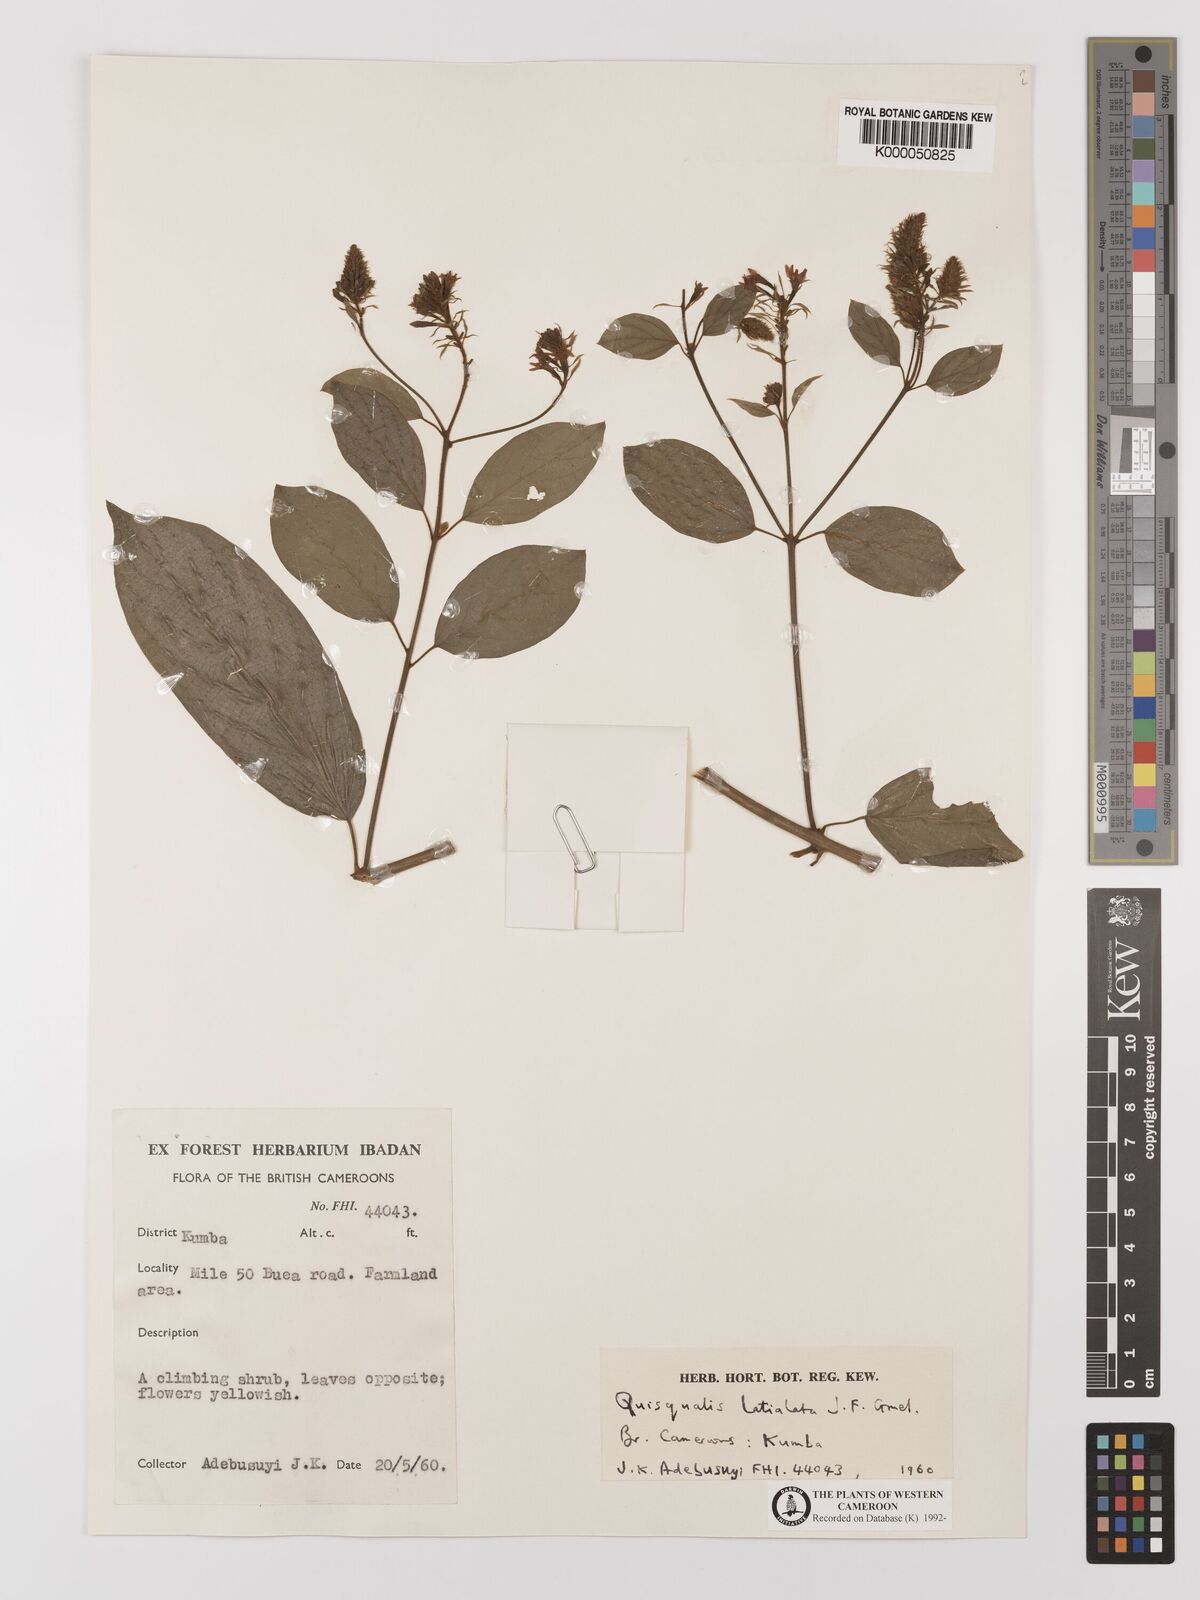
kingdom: Plantae
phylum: Tracheophyta
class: Magnoliopsida
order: Myrtales
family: Combretaceae
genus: Combretum
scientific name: Combretum latialatum
